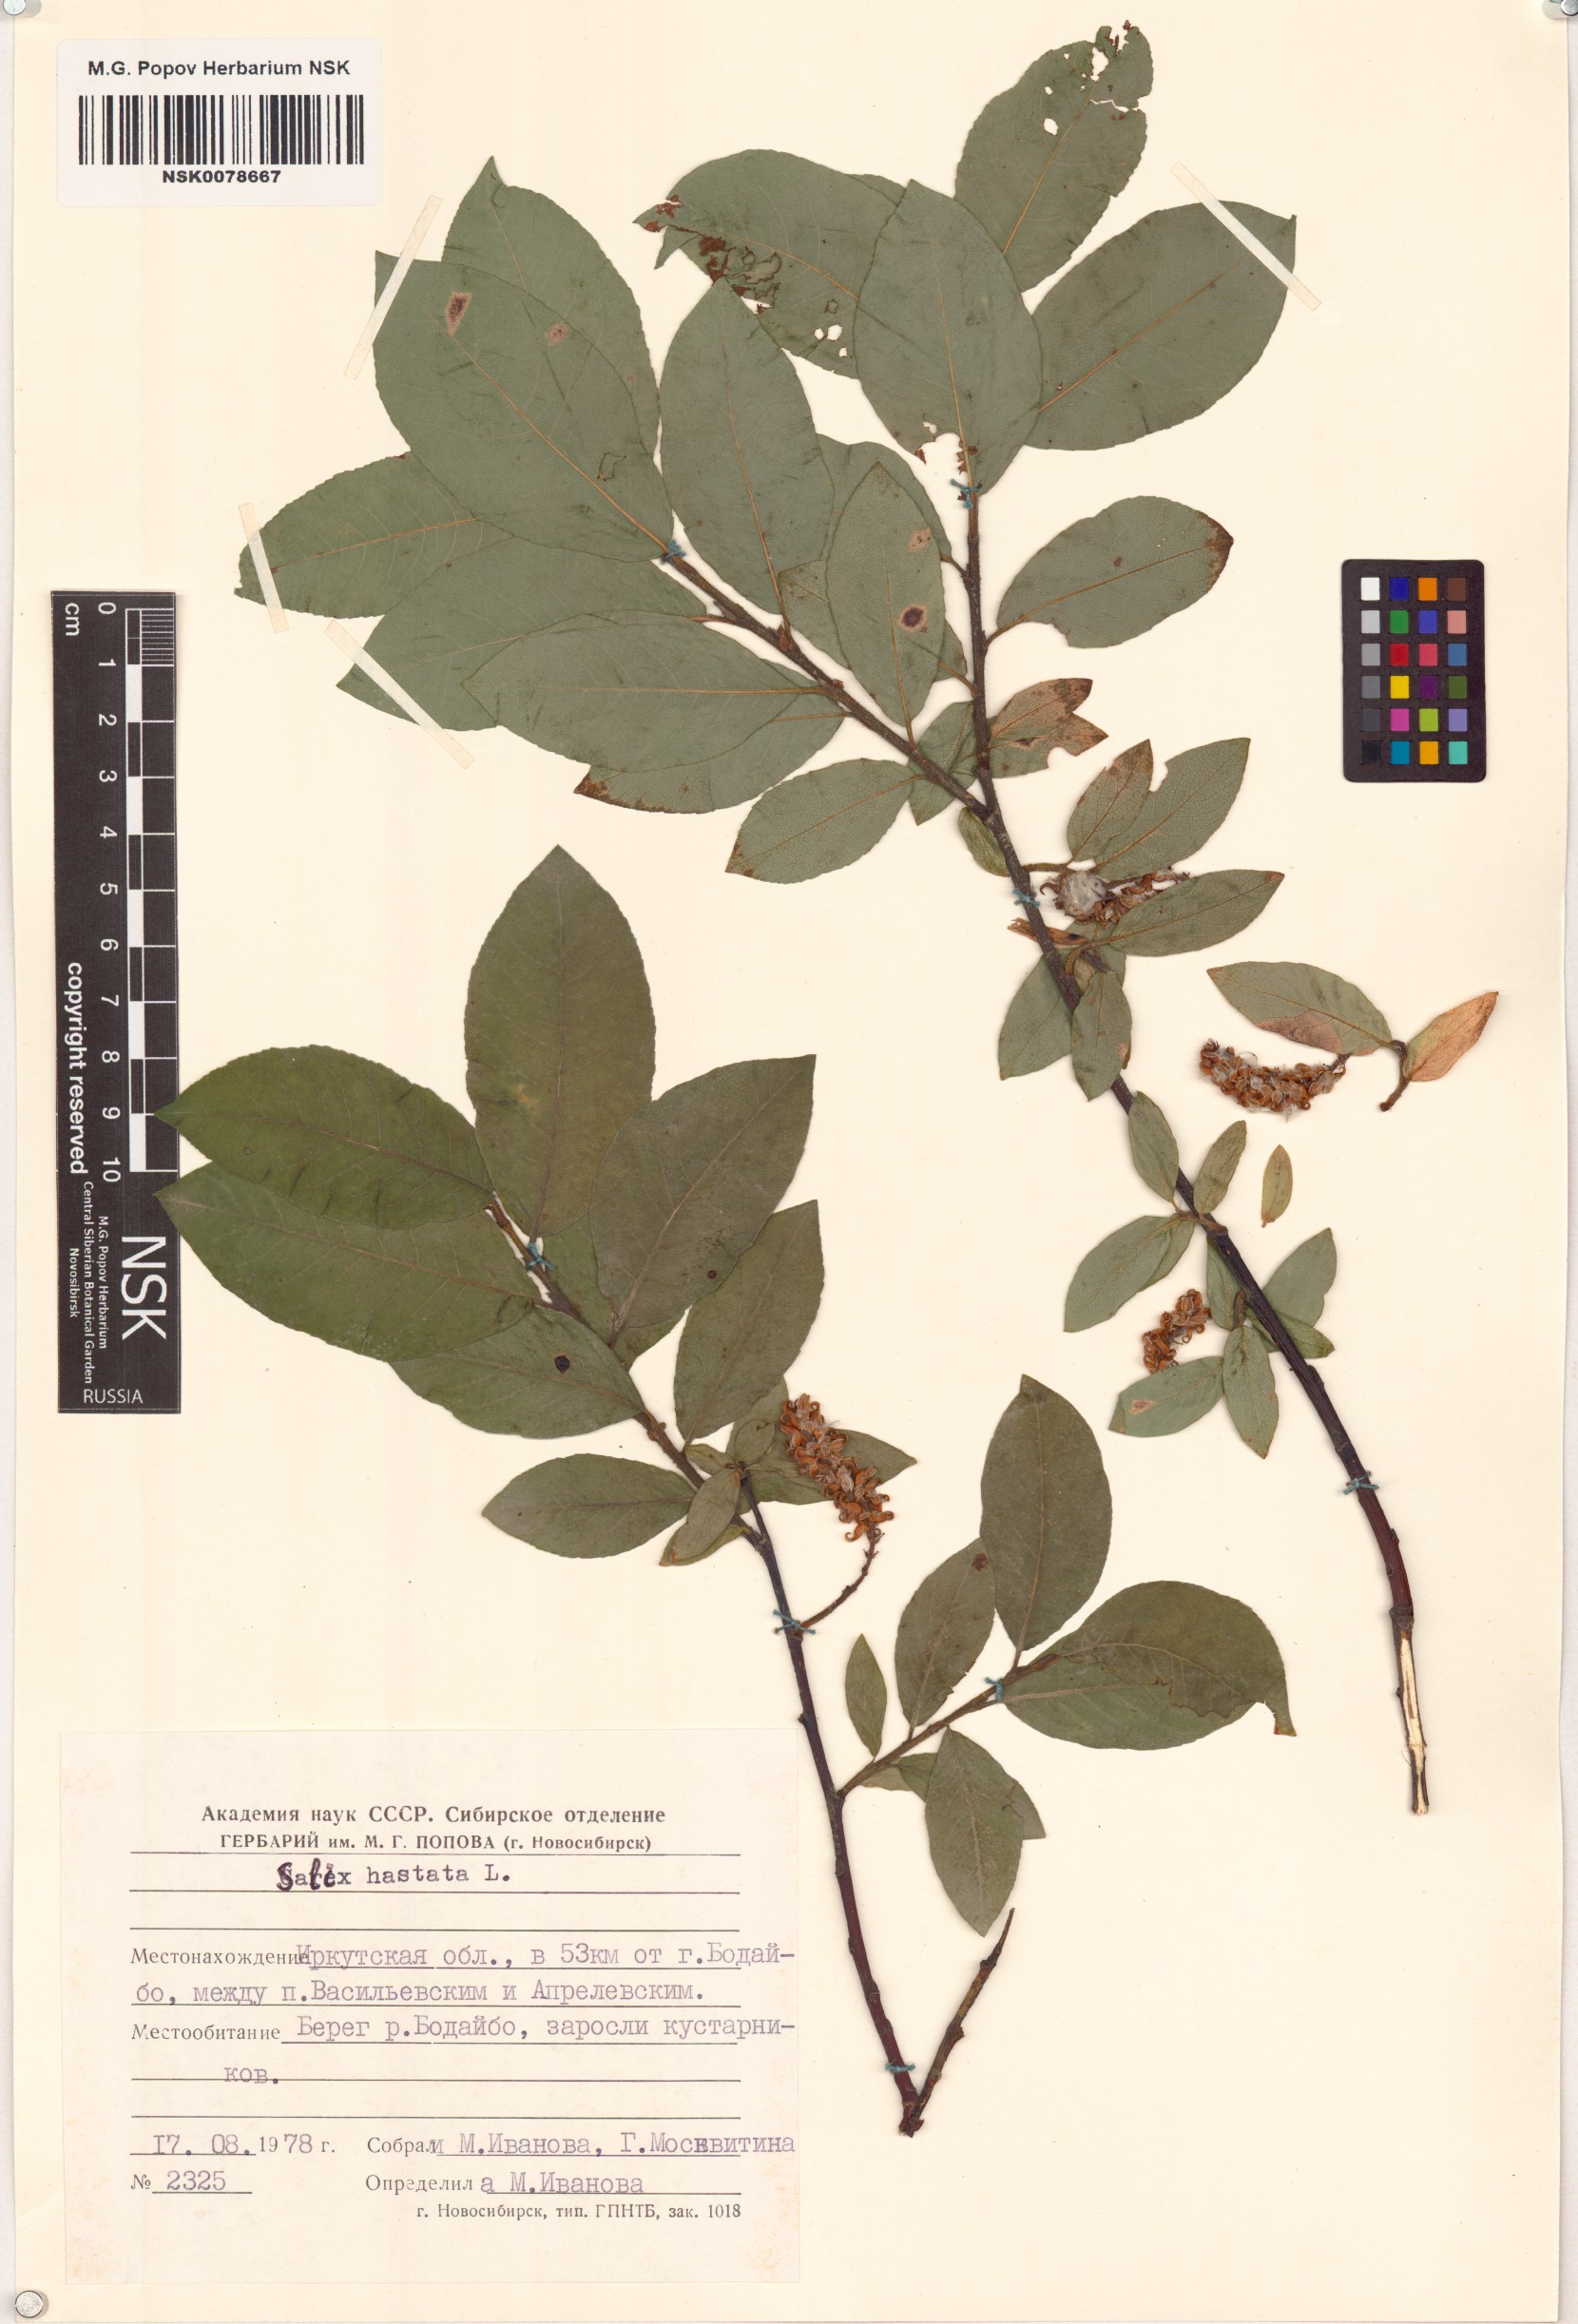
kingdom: Plantae
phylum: Tracheophyta
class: Magnoliopsida
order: Malpighiales
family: Salicaceae
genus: Salix
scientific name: Salix hastata
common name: Halberd willow
